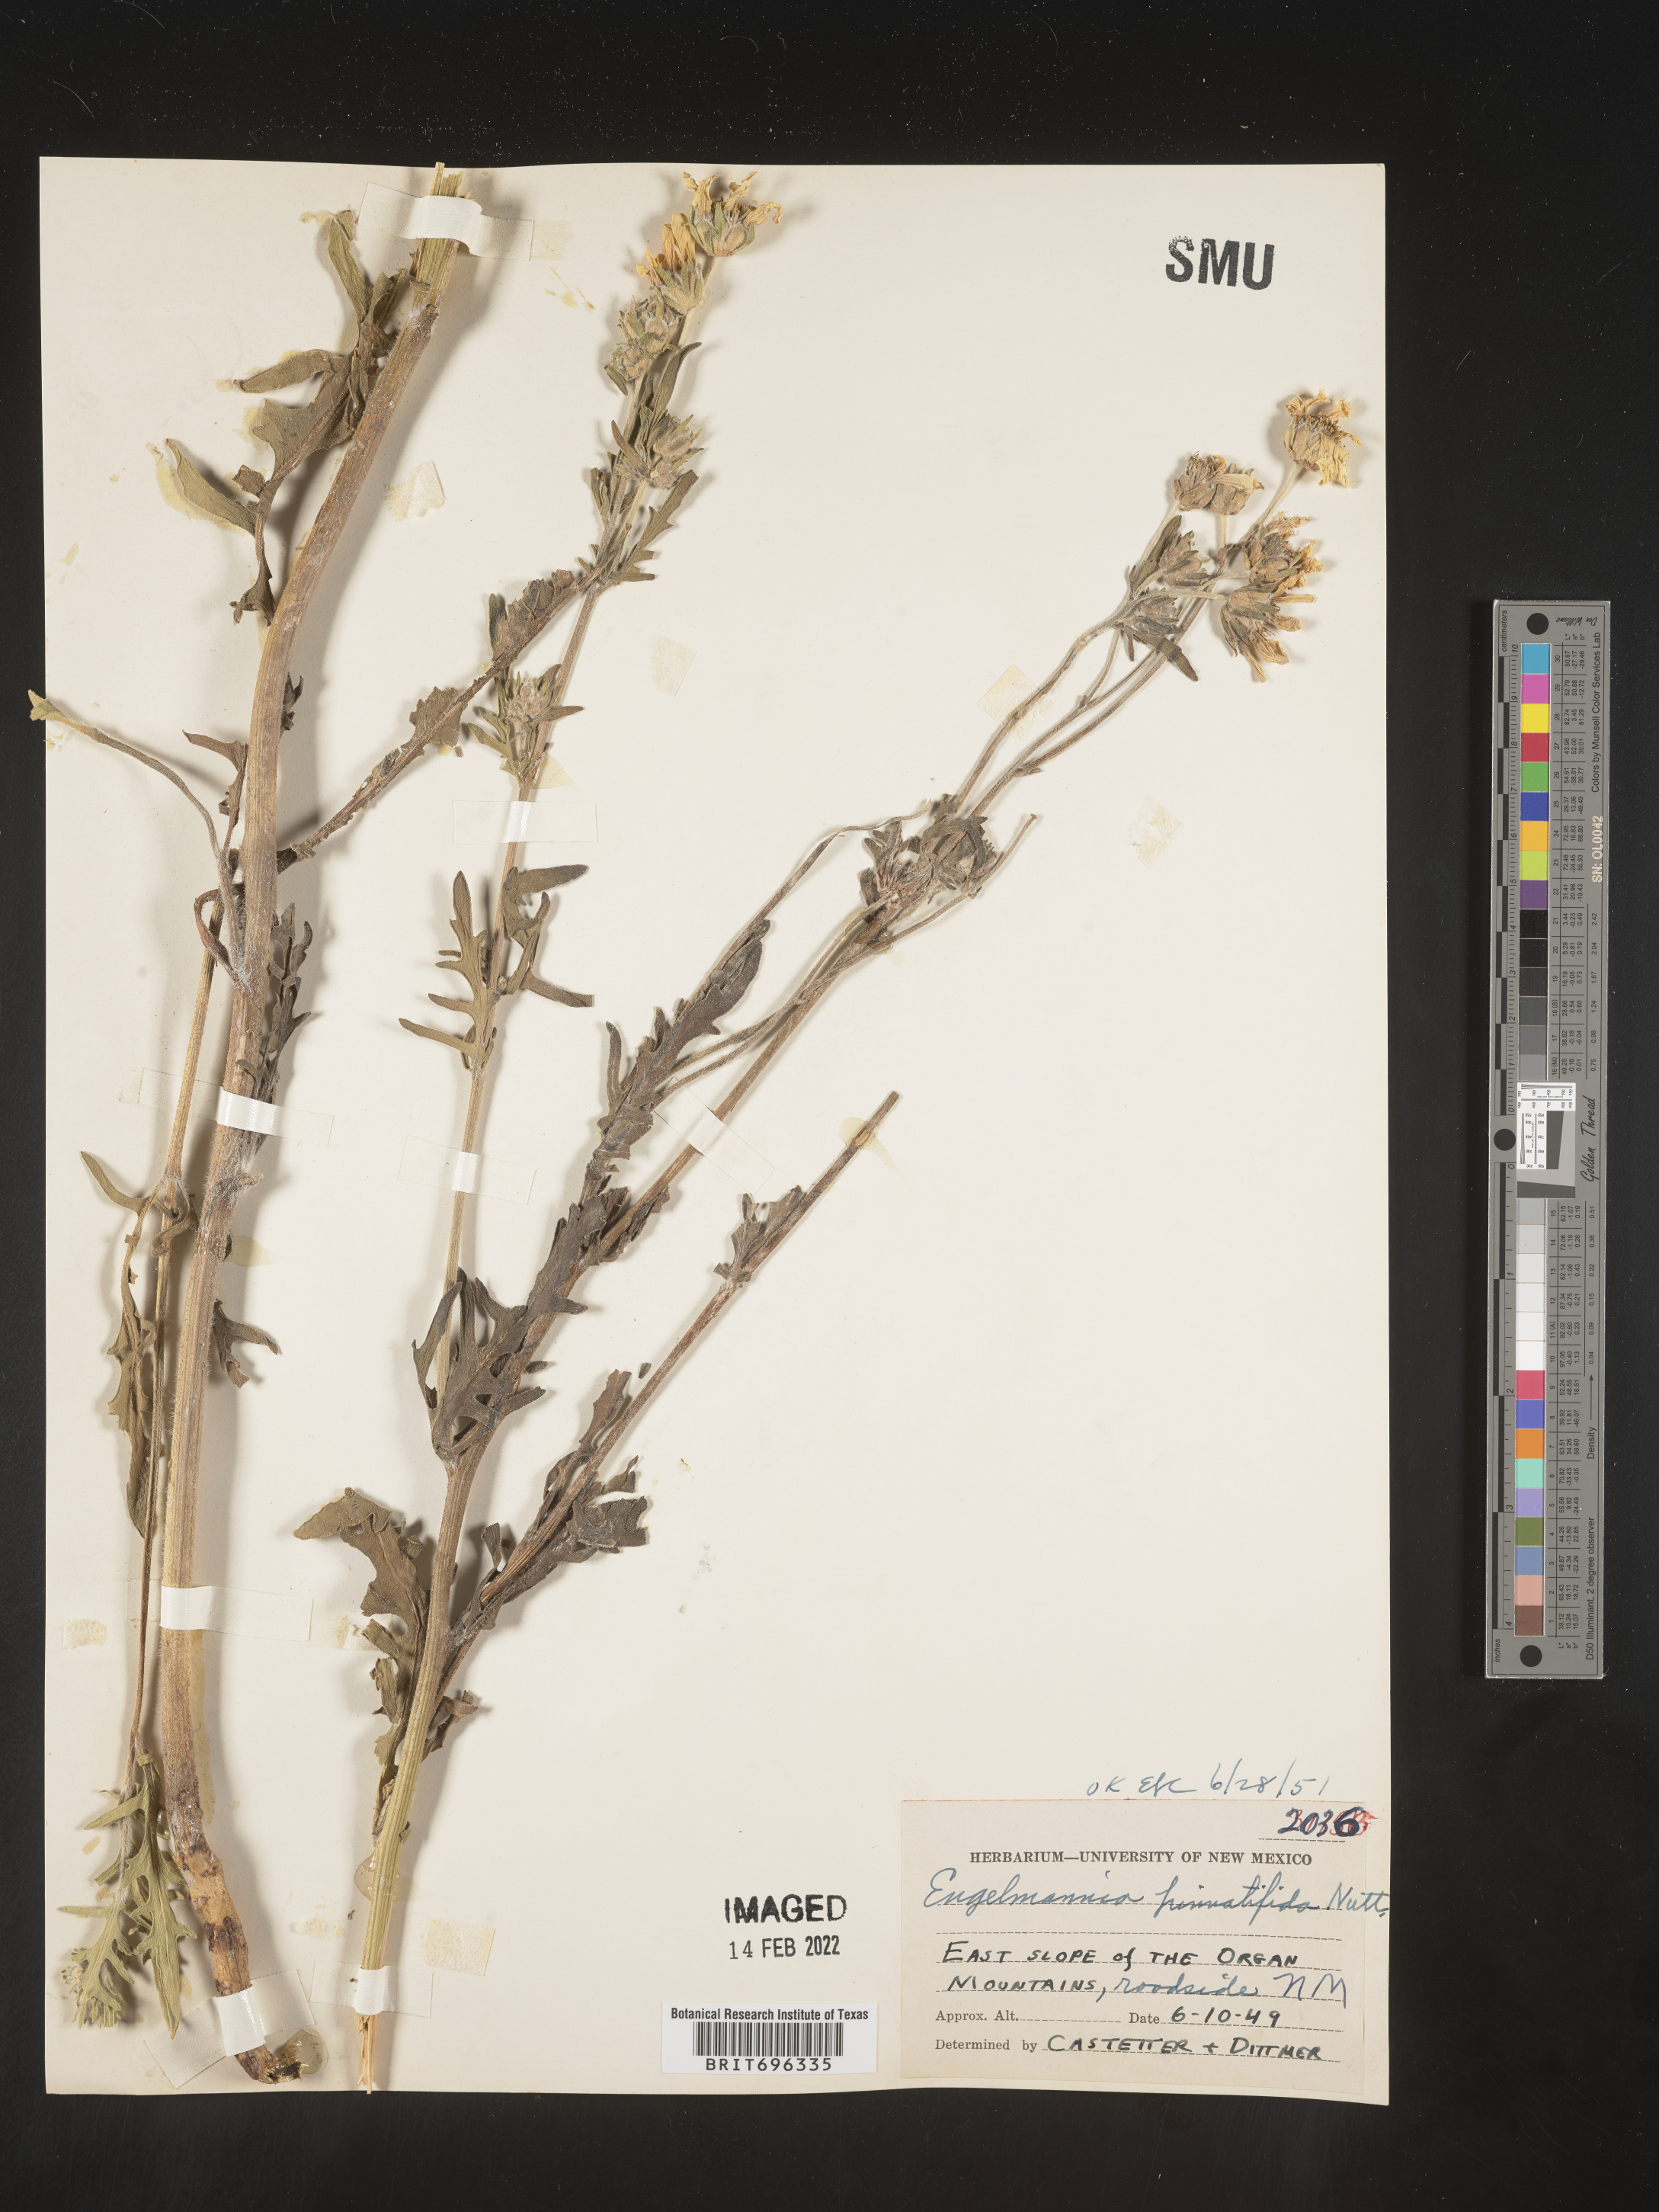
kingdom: Plantae
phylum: Tracheophyta
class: Magnoliopsida
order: Asterales
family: Asteraceae
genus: Engelmannia
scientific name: Engelmannia peristenia
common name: Engelmann's daisy
